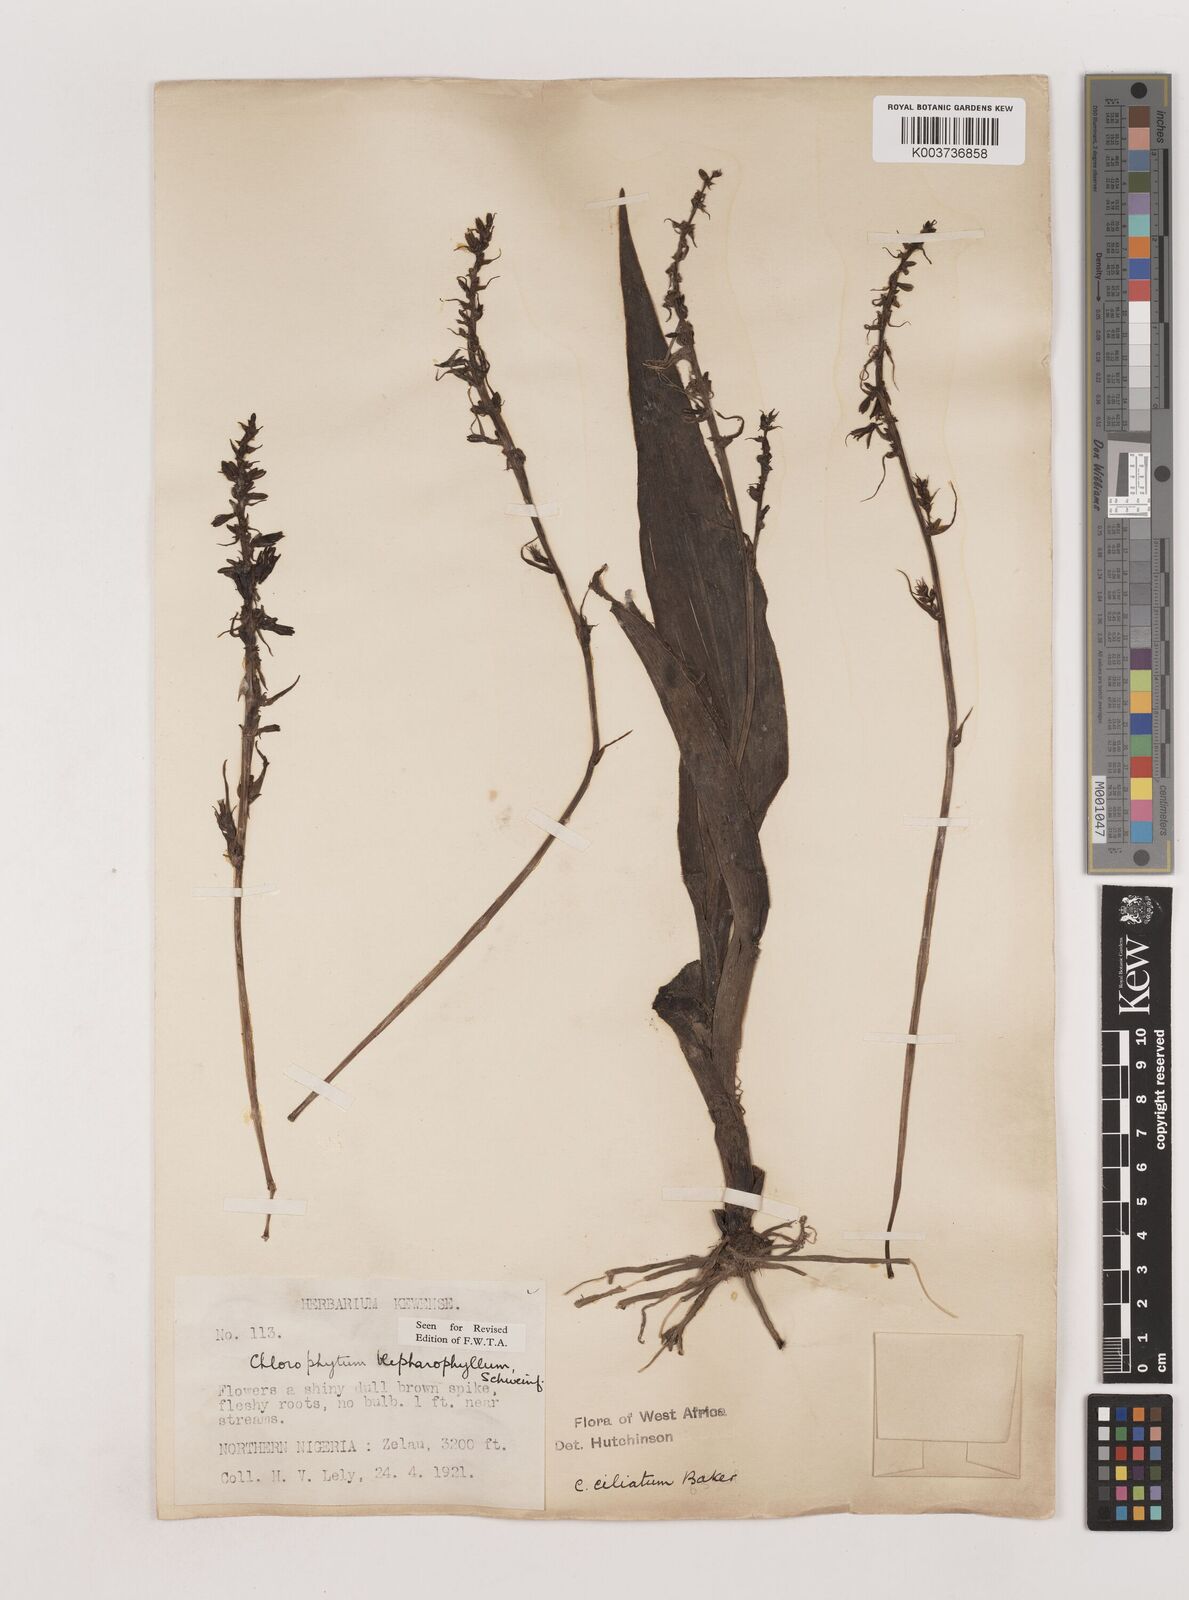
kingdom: Plantae
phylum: Tracheophyta
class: Liliopsida
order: Asparagales
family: Asparagaceae
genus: Chlorophytum
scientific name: Chlorophytum blepharophyllum
